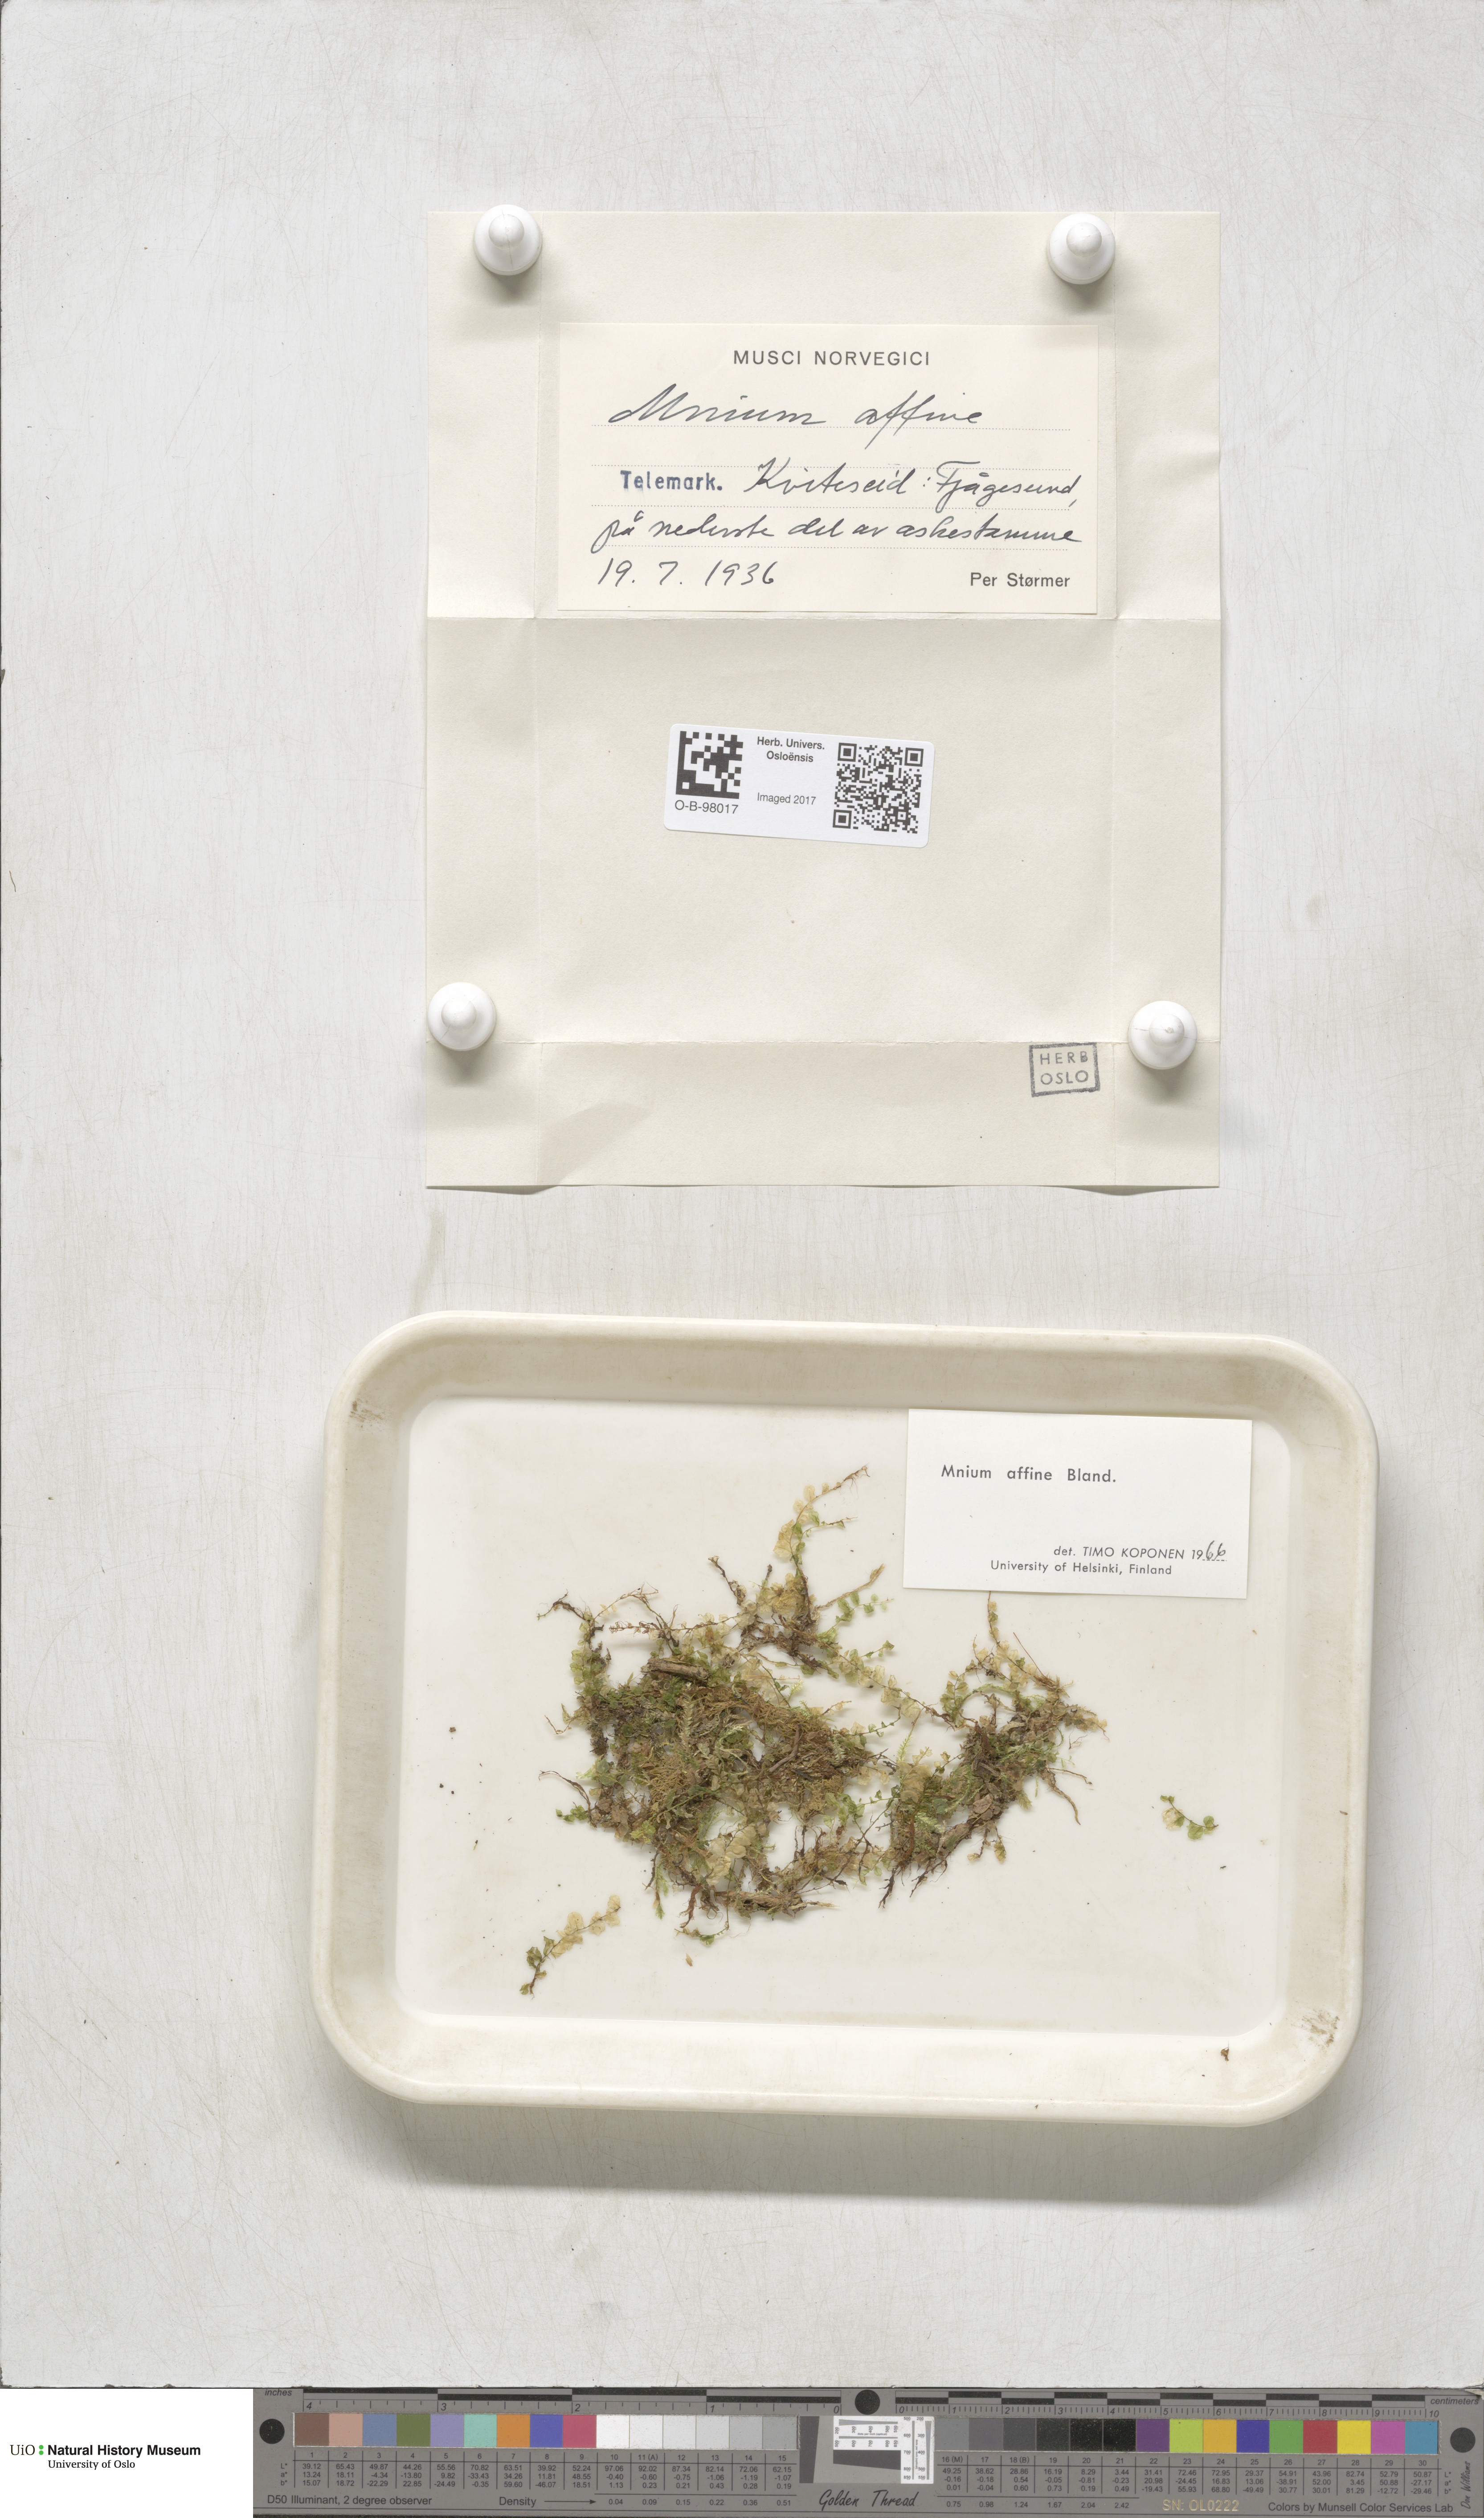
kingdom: Plantae
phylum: Bryophyta
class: Bryopsida
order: Bryales
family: Mniaceae
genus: Plagiomnium
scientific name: Plagiomnium affine
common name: Many-fruited thyme-moss
